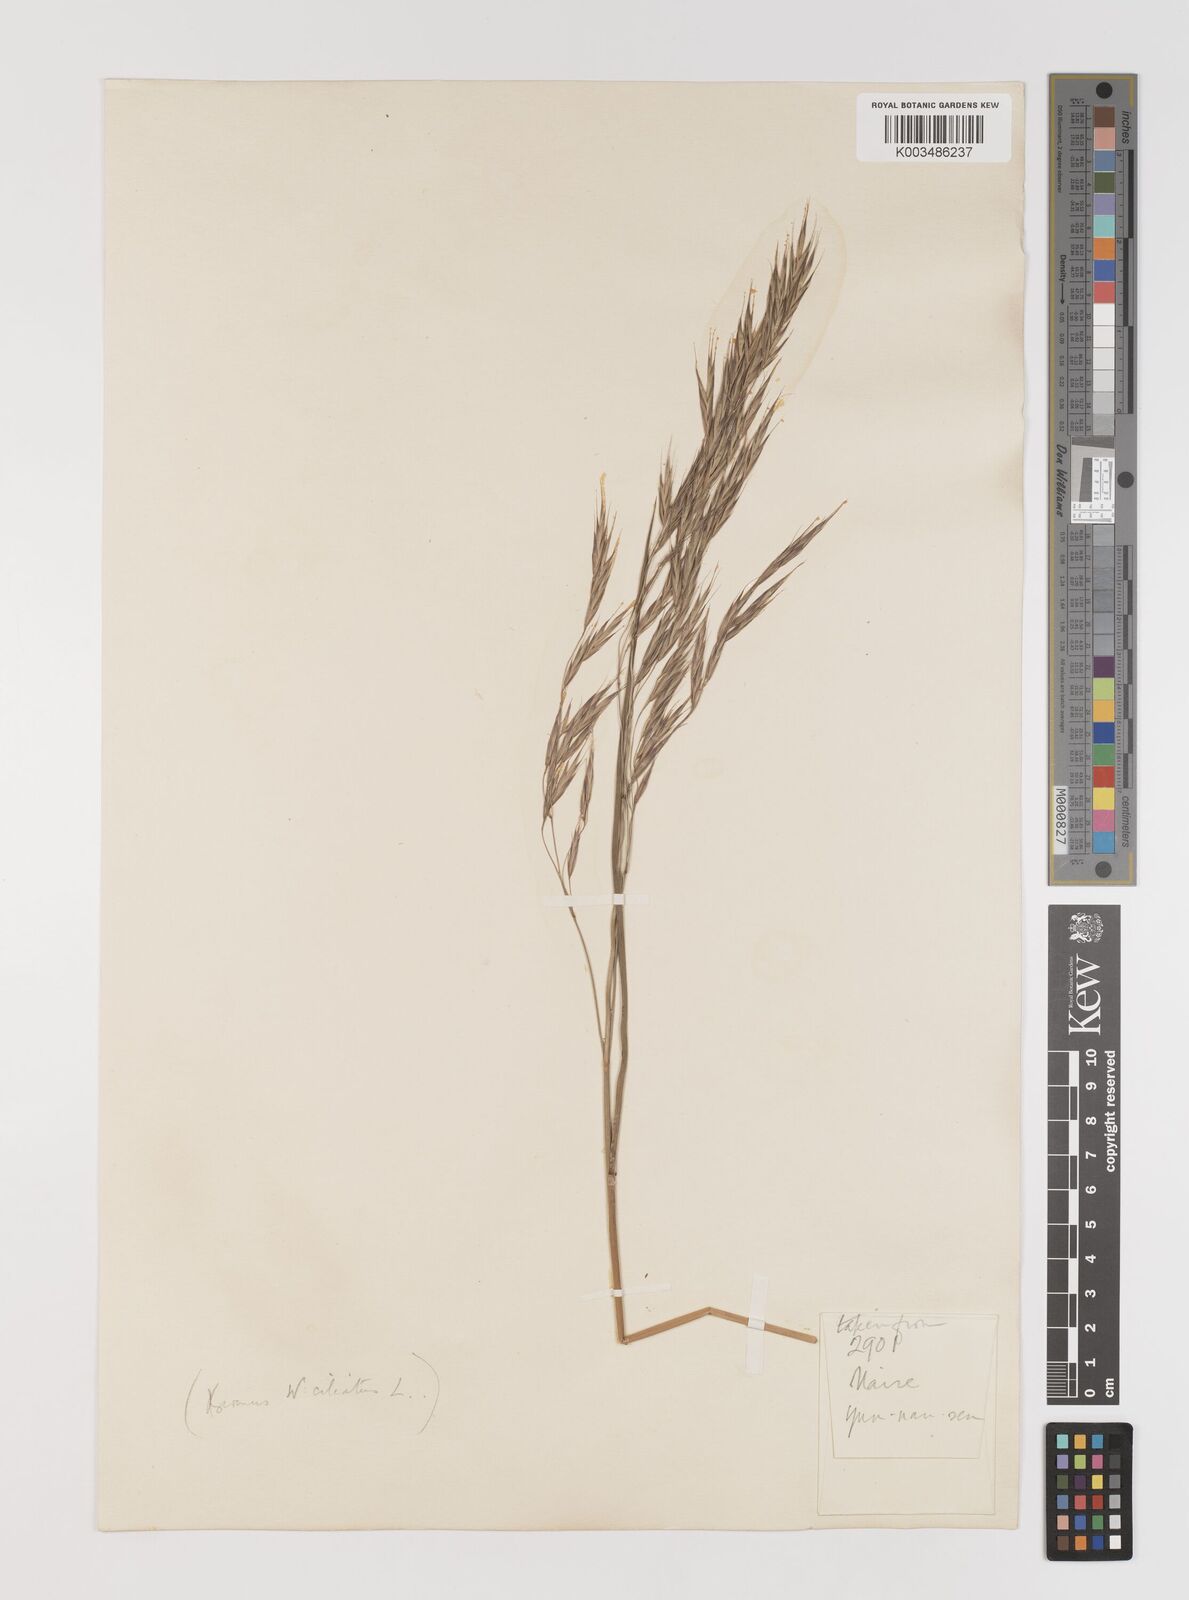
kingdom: Plantae
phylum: Tracheophyta
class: Liliopsida
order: Poales
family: Poaceae
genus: Bromus
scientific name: Bromus ciliatus
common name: Fringe brome
